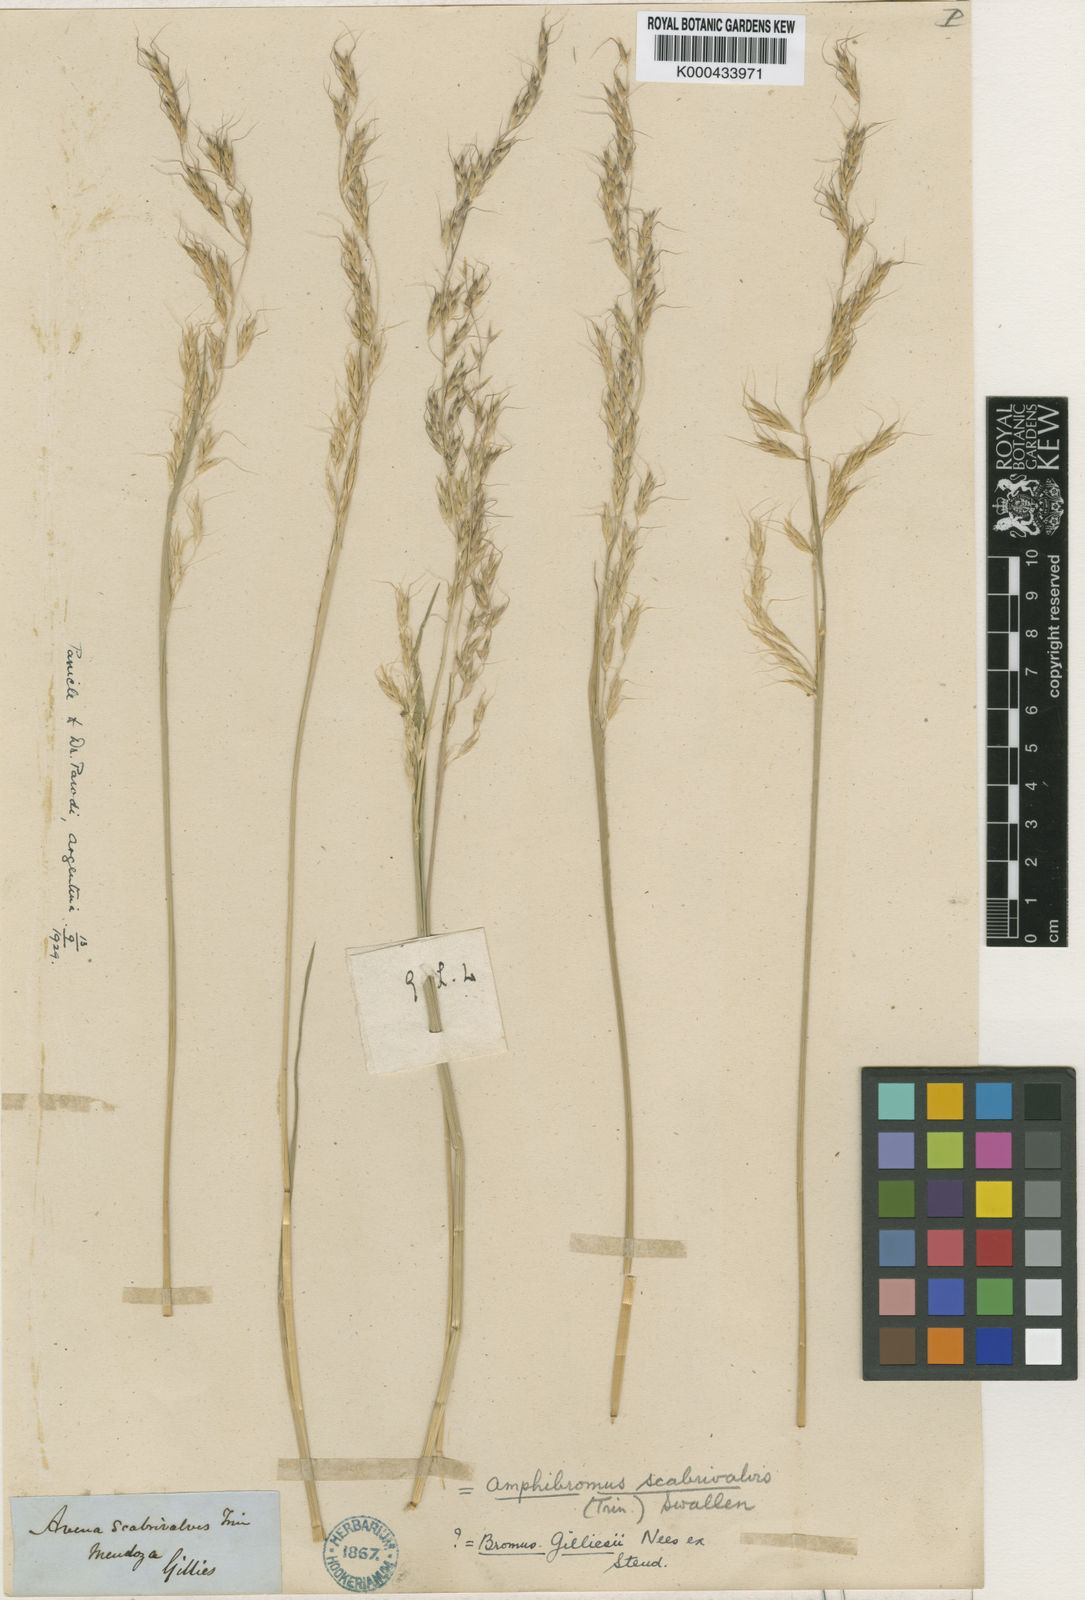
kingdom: Plantae
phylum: Tracheophyta
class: Liliopsida
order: Poales
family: Poaceae
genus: Amphibromus
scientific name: Amphibromus scabrivalvis
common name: Swamp wallaby grass
